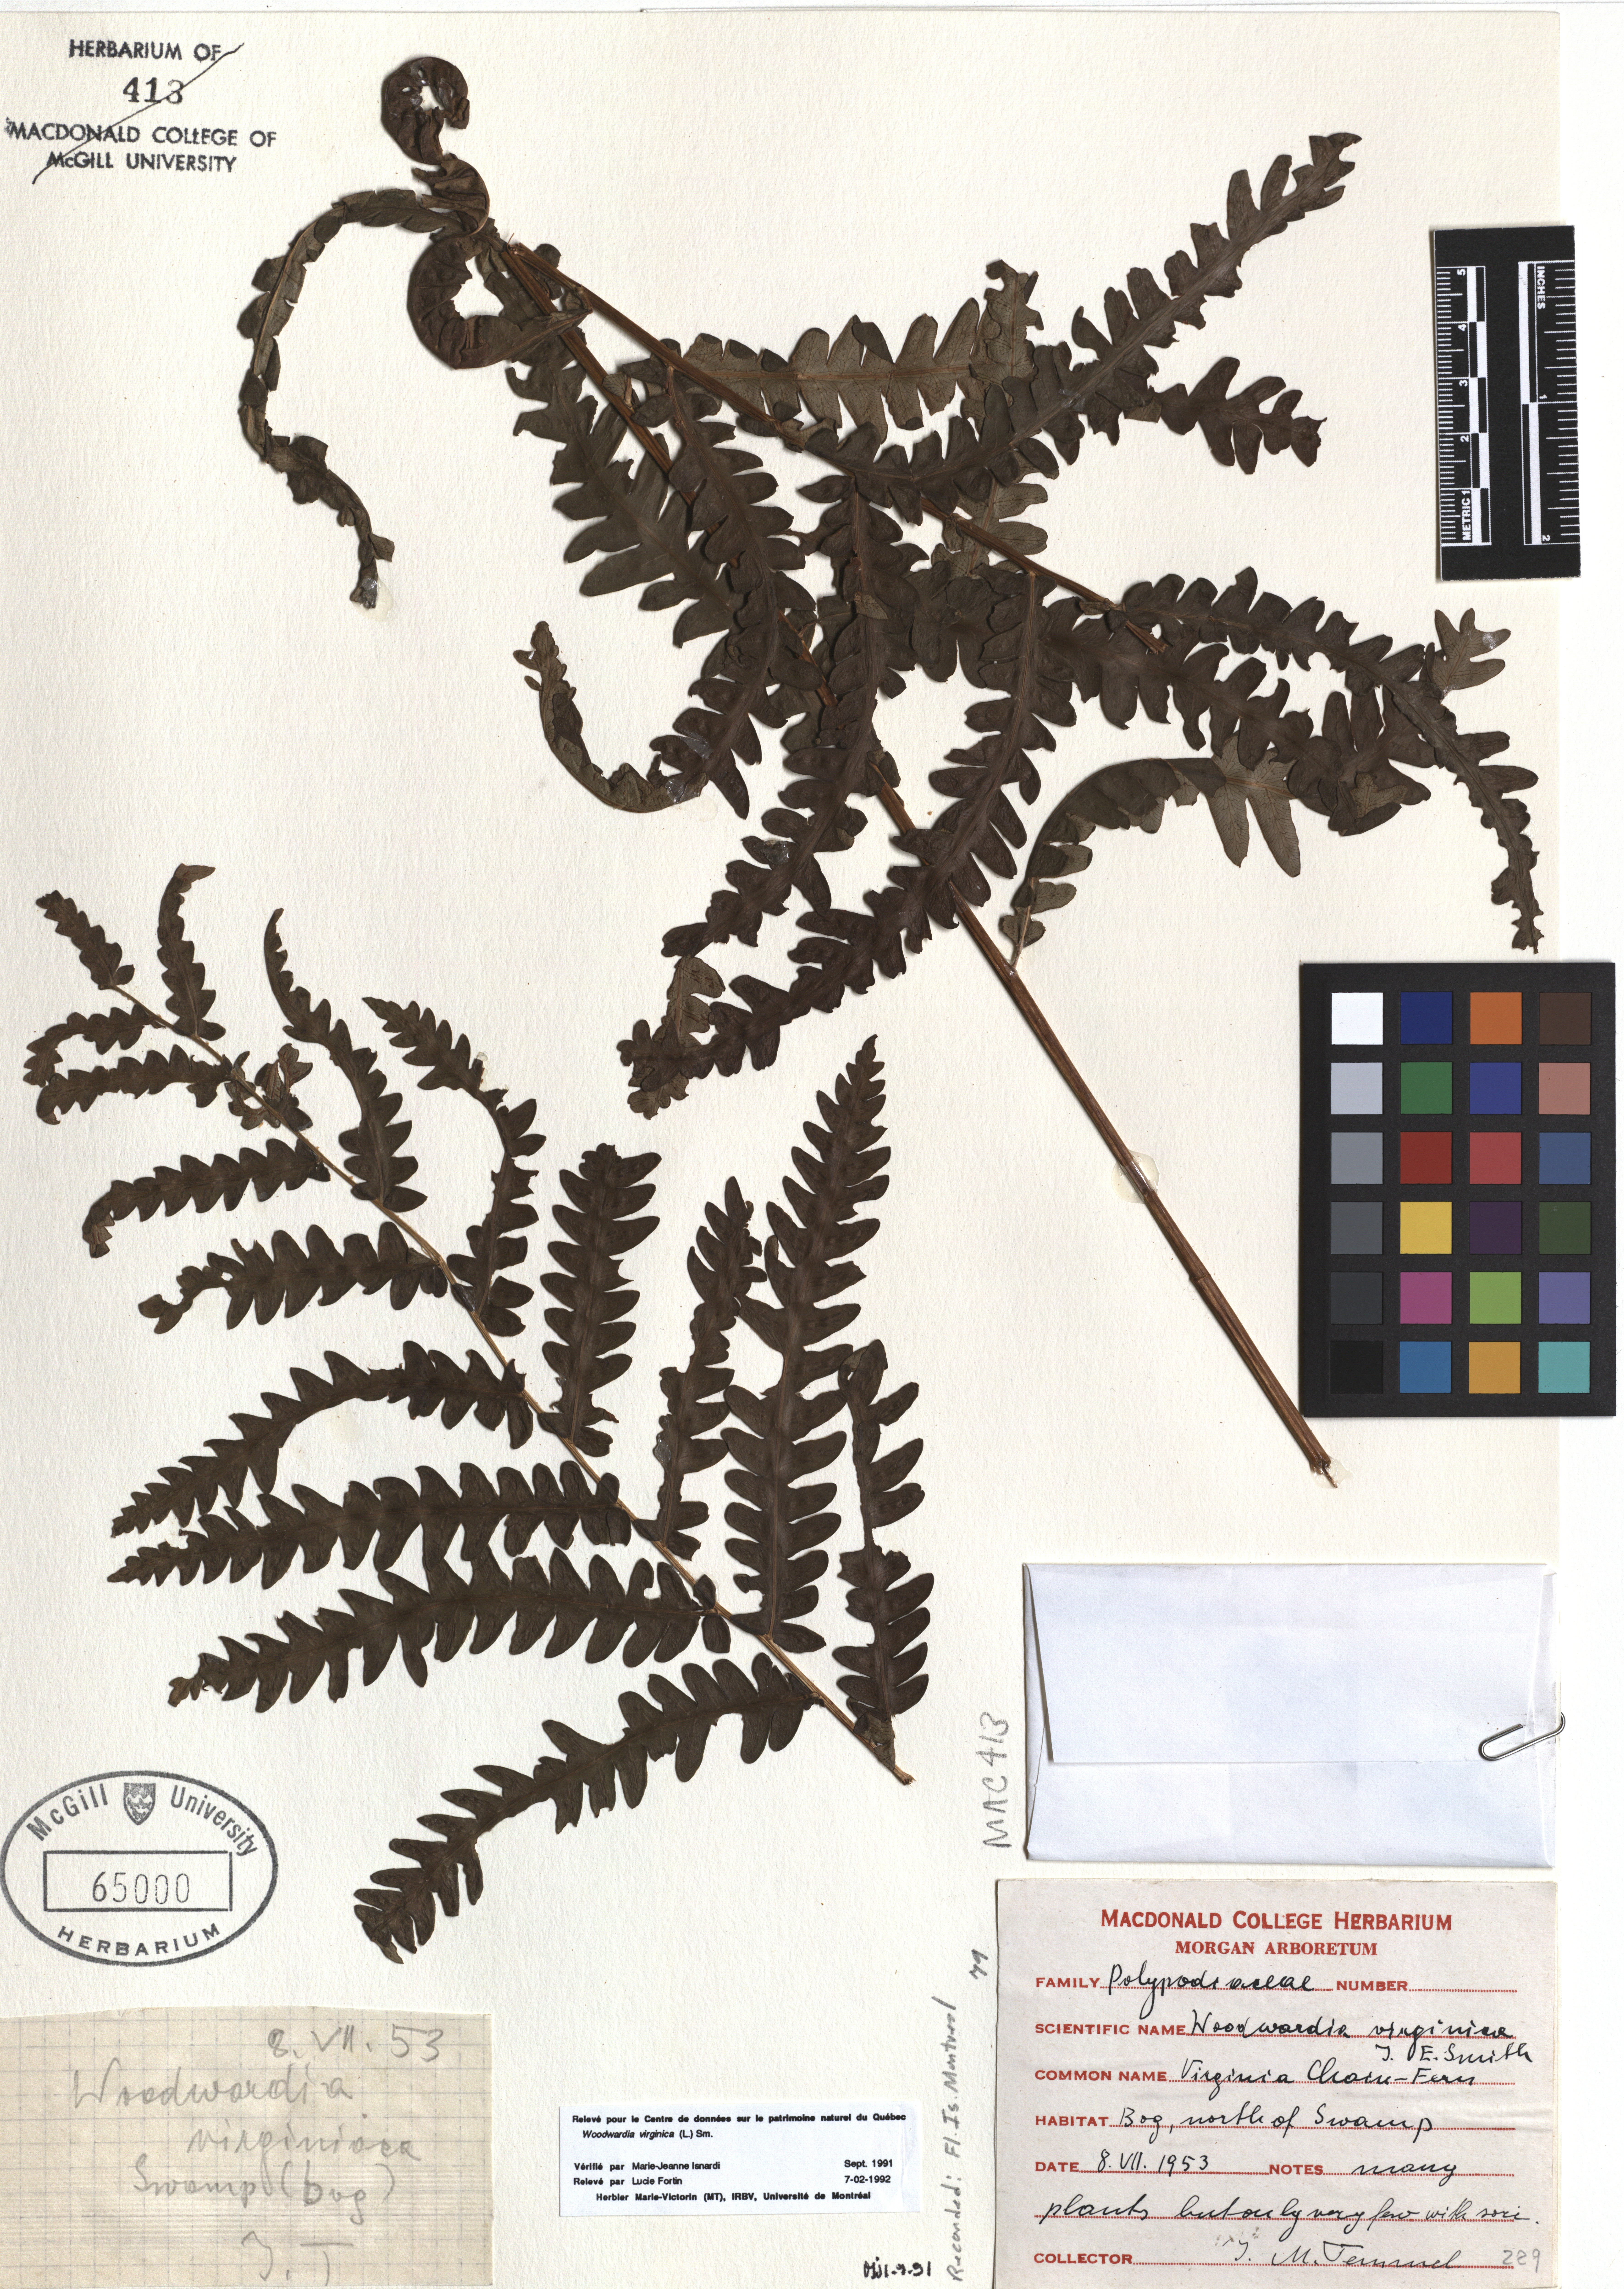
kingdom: Plantae
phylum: Tracheophyta
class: Polypodiopsida
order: Polypodiales
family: Blechnaceae
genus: Anchistea
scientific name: Anchistea virginica
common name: Virginia chain fern
